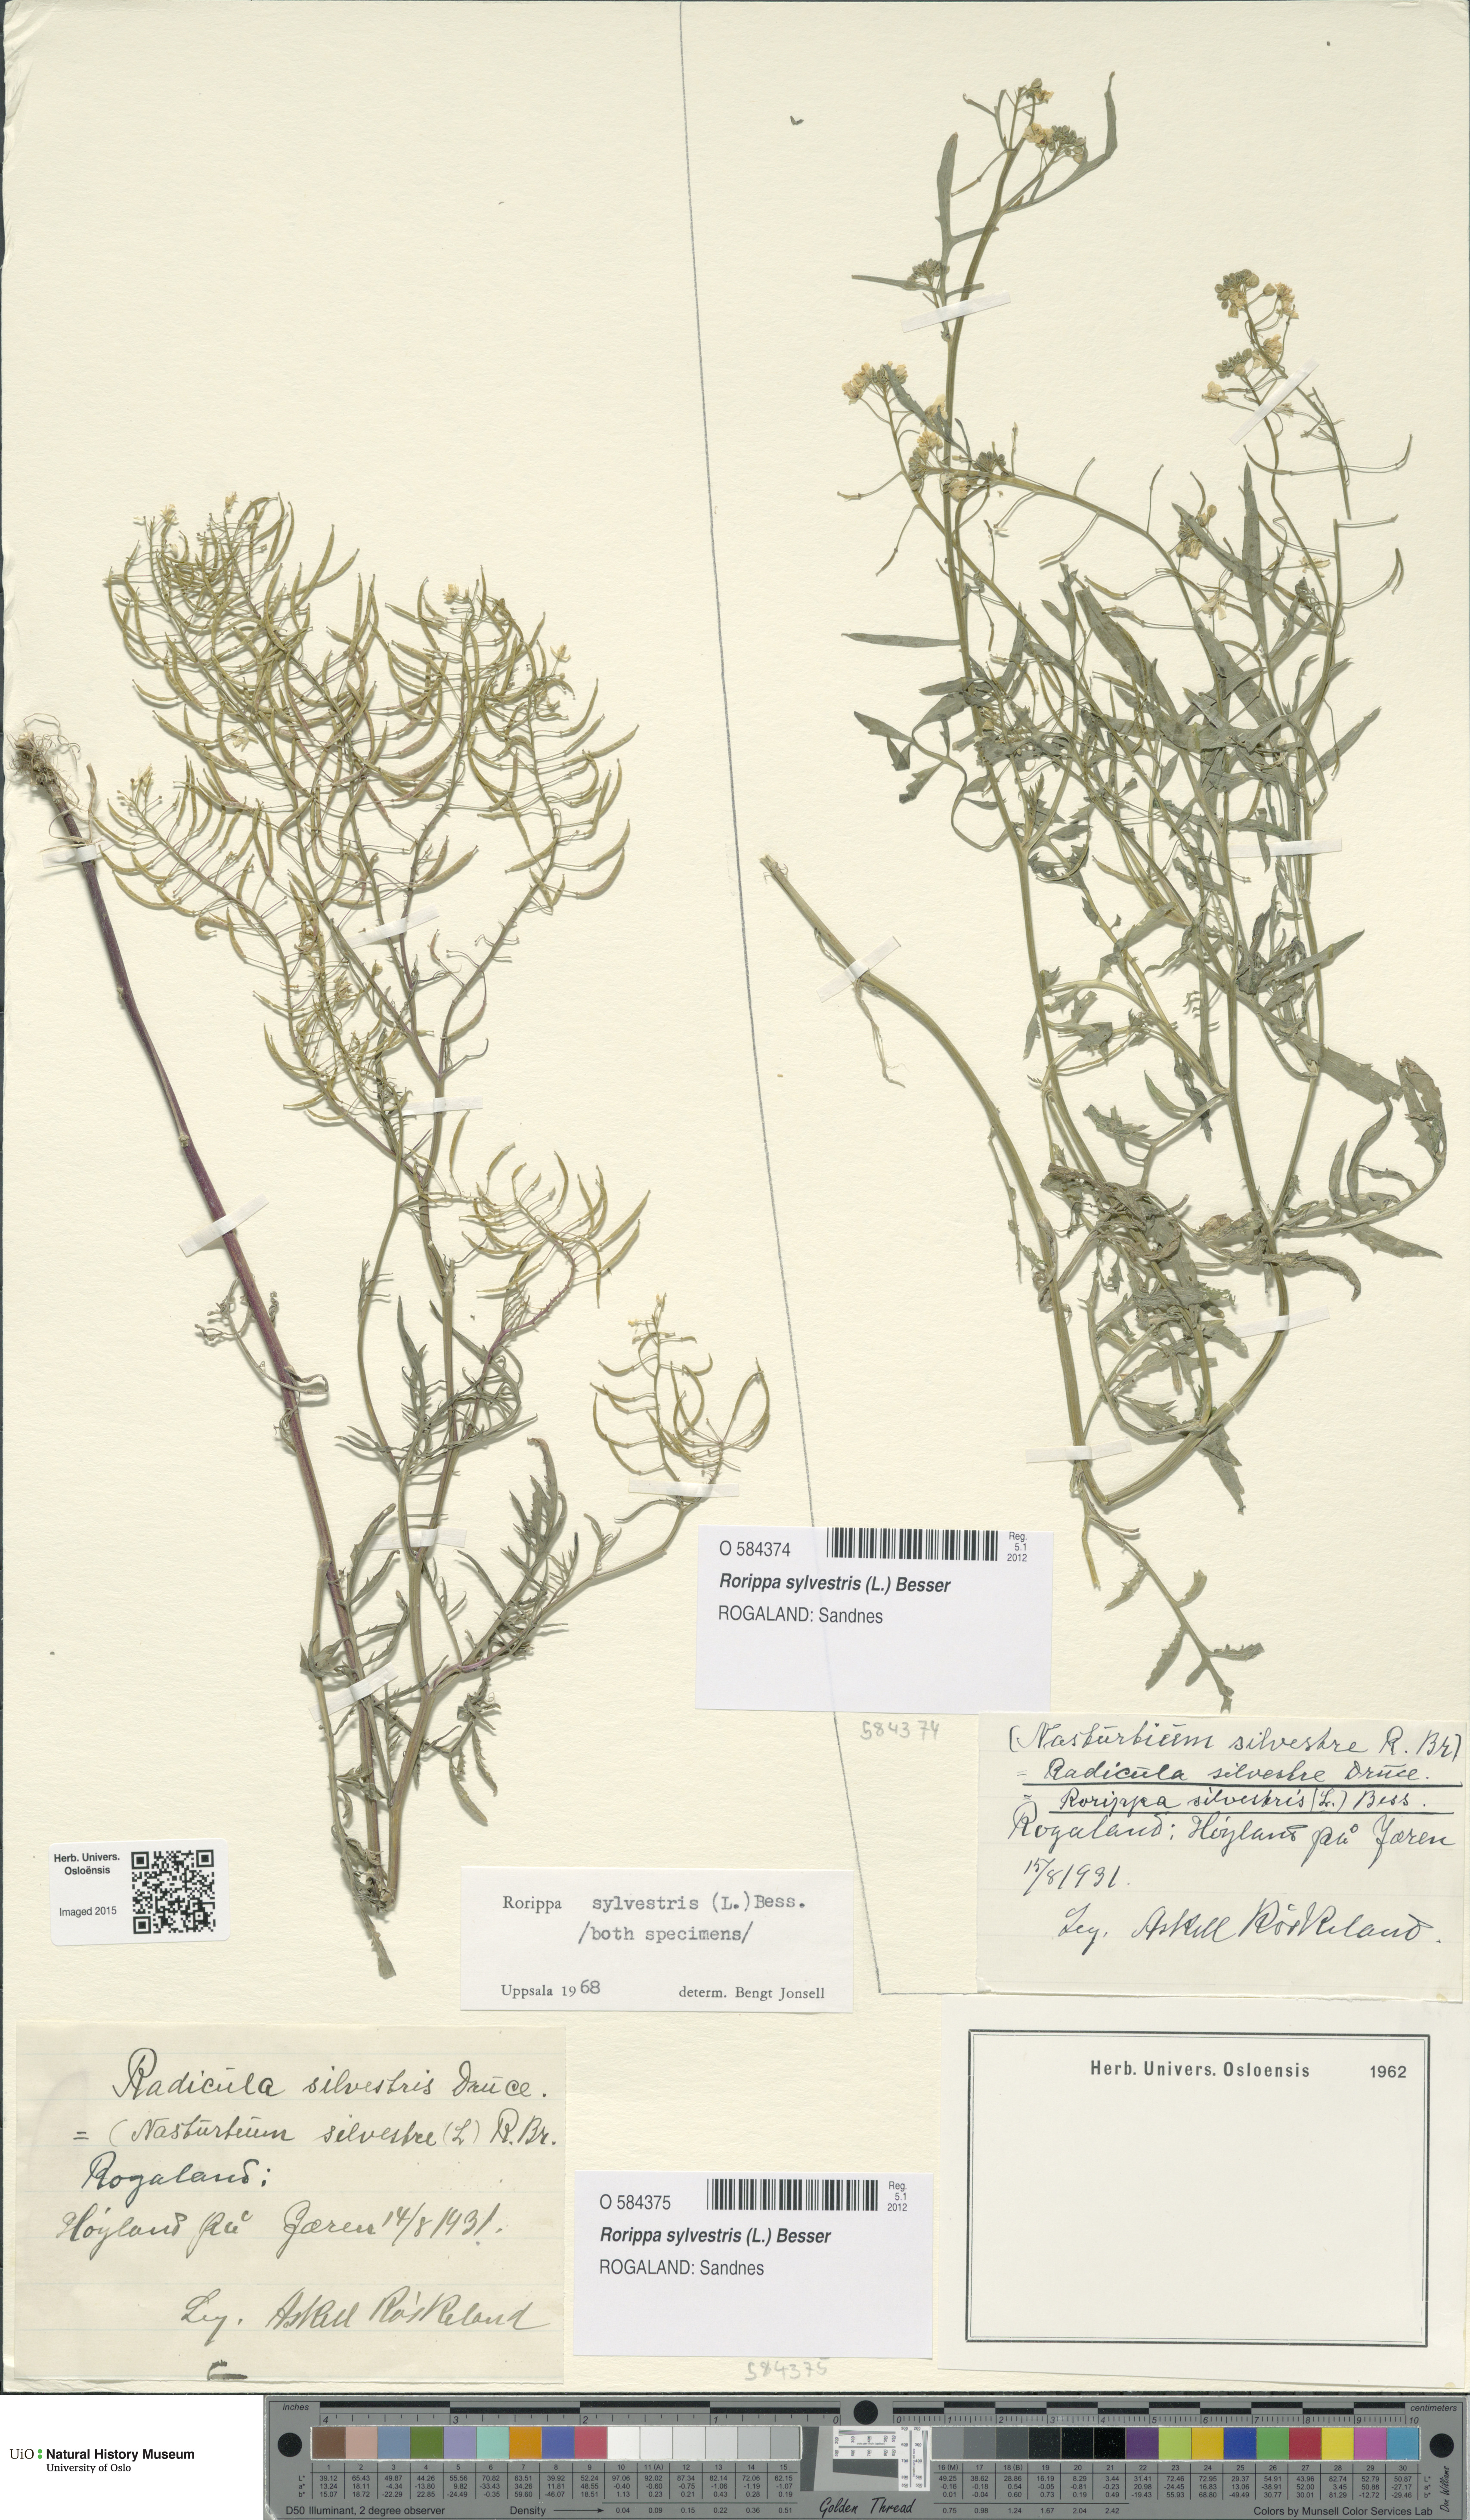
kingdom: Plantae
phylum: Tracheophyta
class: Magnoliopsida
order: Brassicales
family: Brassicaceae
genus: Rorippa
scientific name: Rorippa sylvestris
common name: Creeping yellowcress
